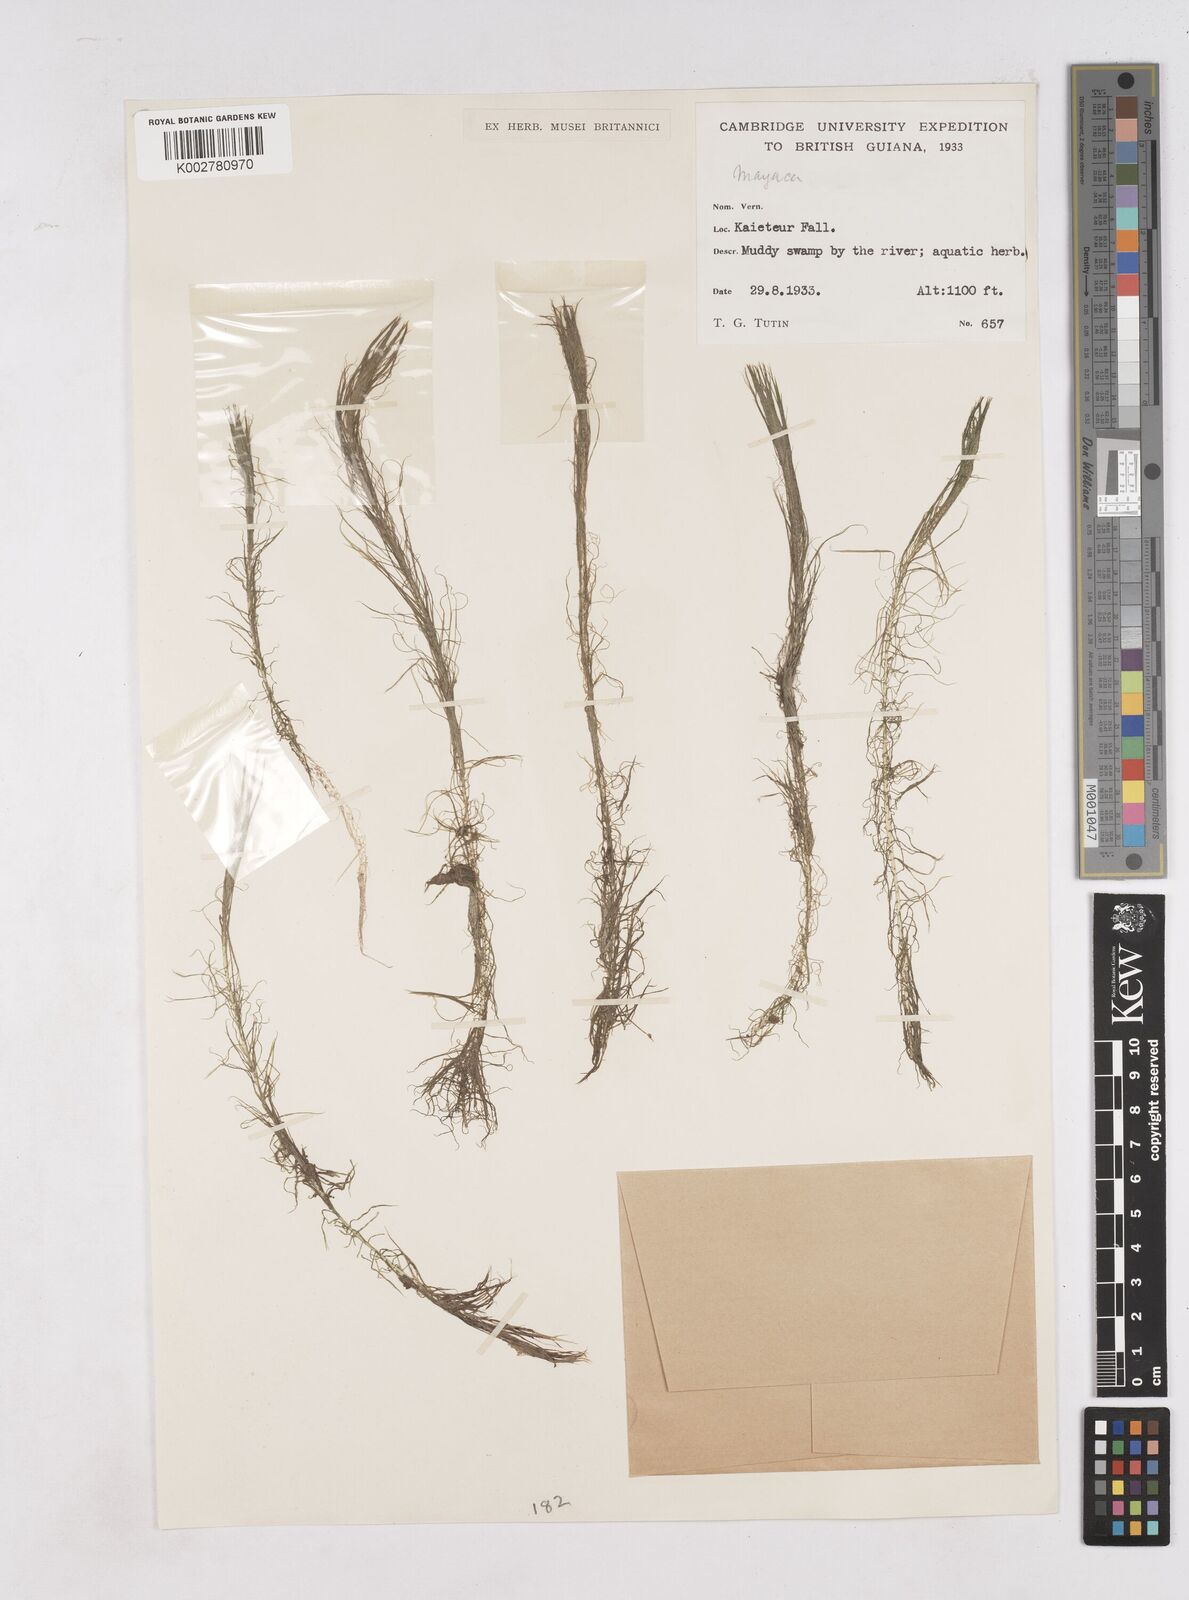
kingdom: Plantae
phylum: Tracheophyta
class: Liliopsida
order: Poales
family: Mayacaceae
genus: Mayaca
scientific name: Mayaca
